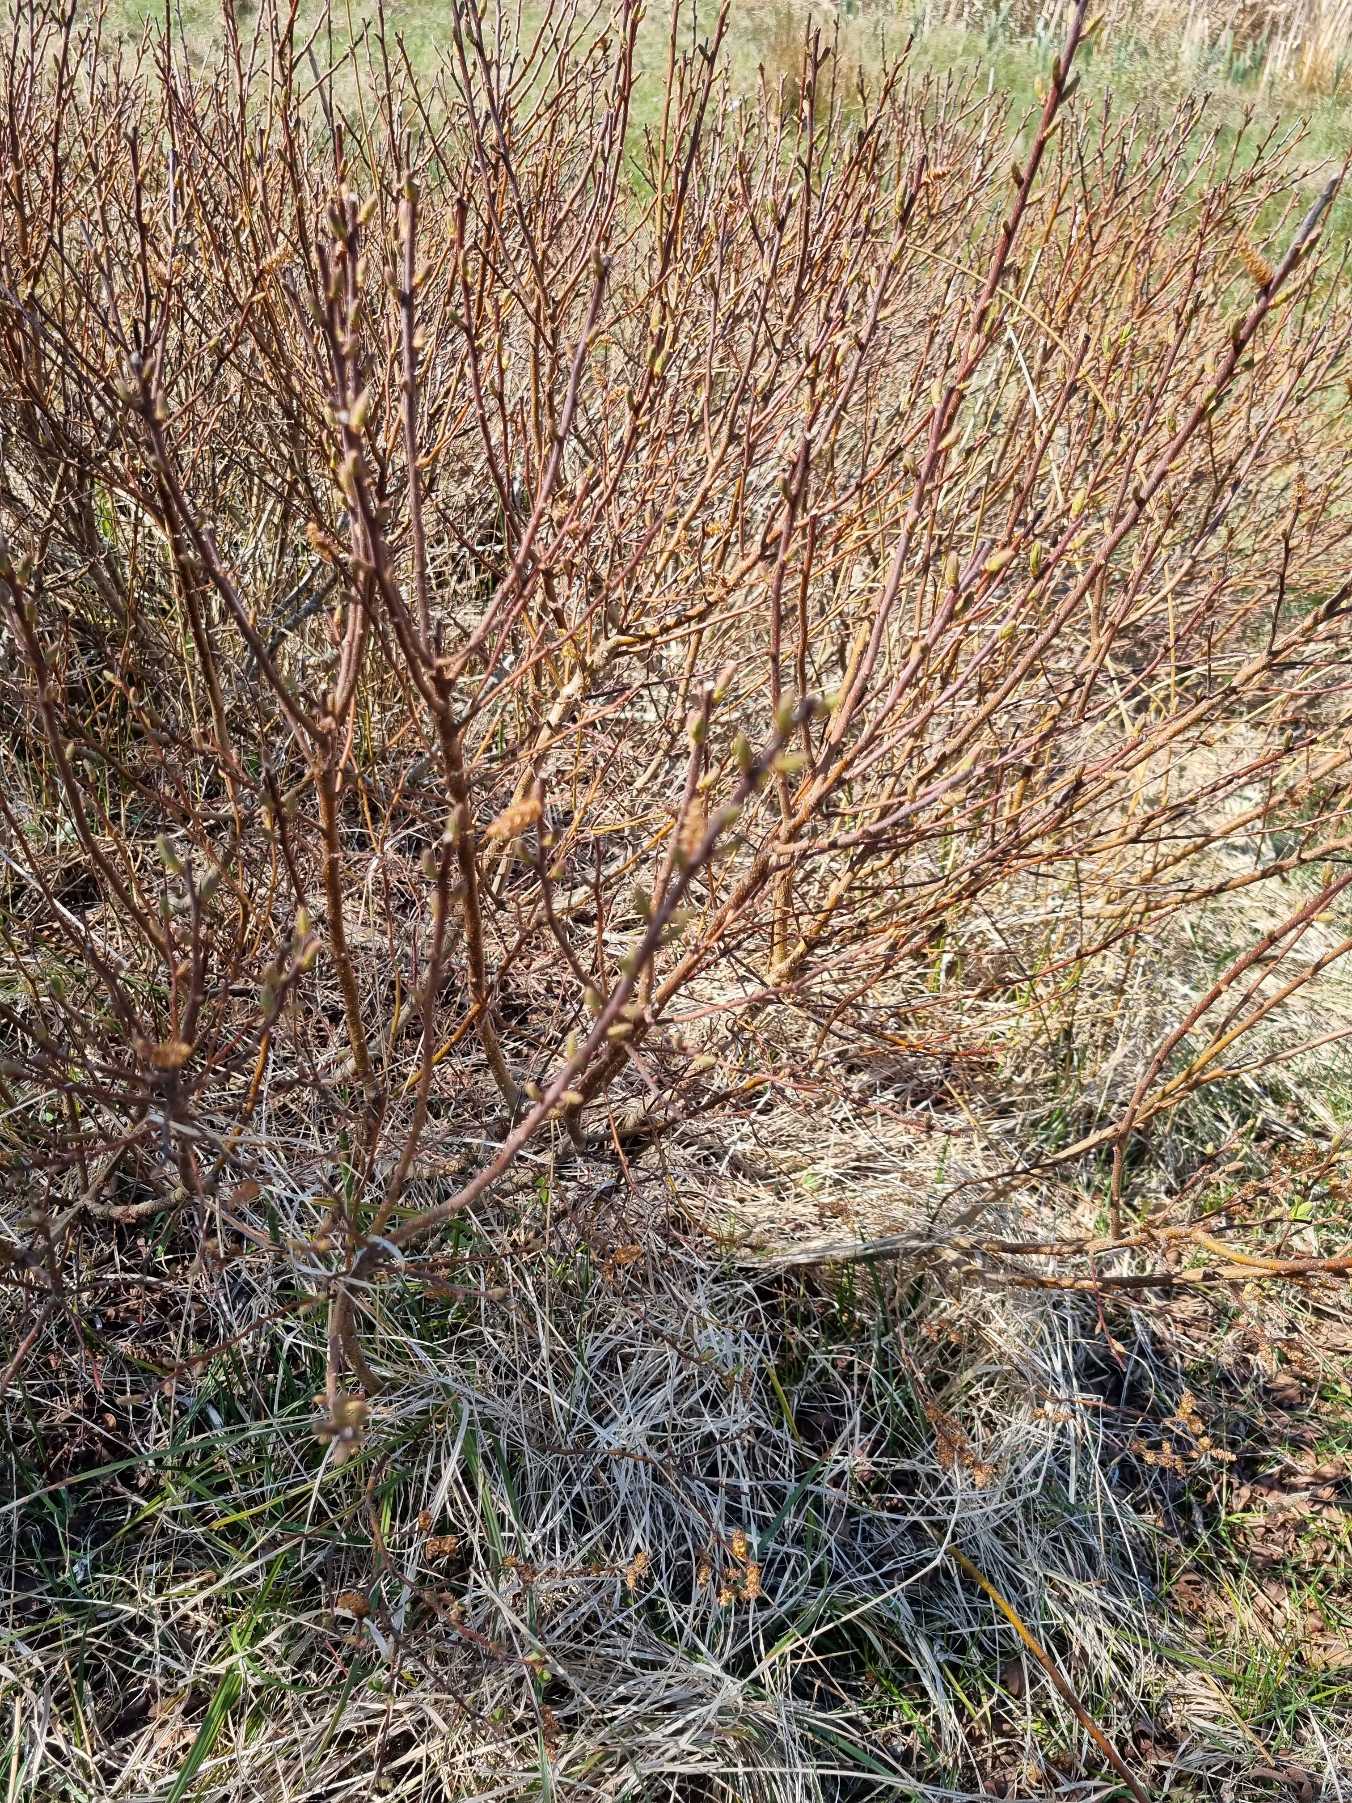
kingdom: Plantae
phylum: Tracheophyta
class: Magnoliopsida
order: Fagales
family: Myricaceae
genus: Myrica
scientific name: Myrica gale
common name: Pors
